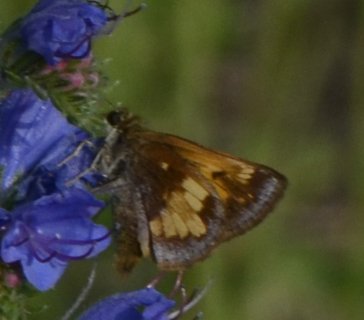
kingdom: Animalia
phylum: Arthropoda
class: Insecta
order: Lepidoptera
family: Hesperiidae
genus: Lon
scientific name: Lon hobomok
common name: Hobomok Skipper
